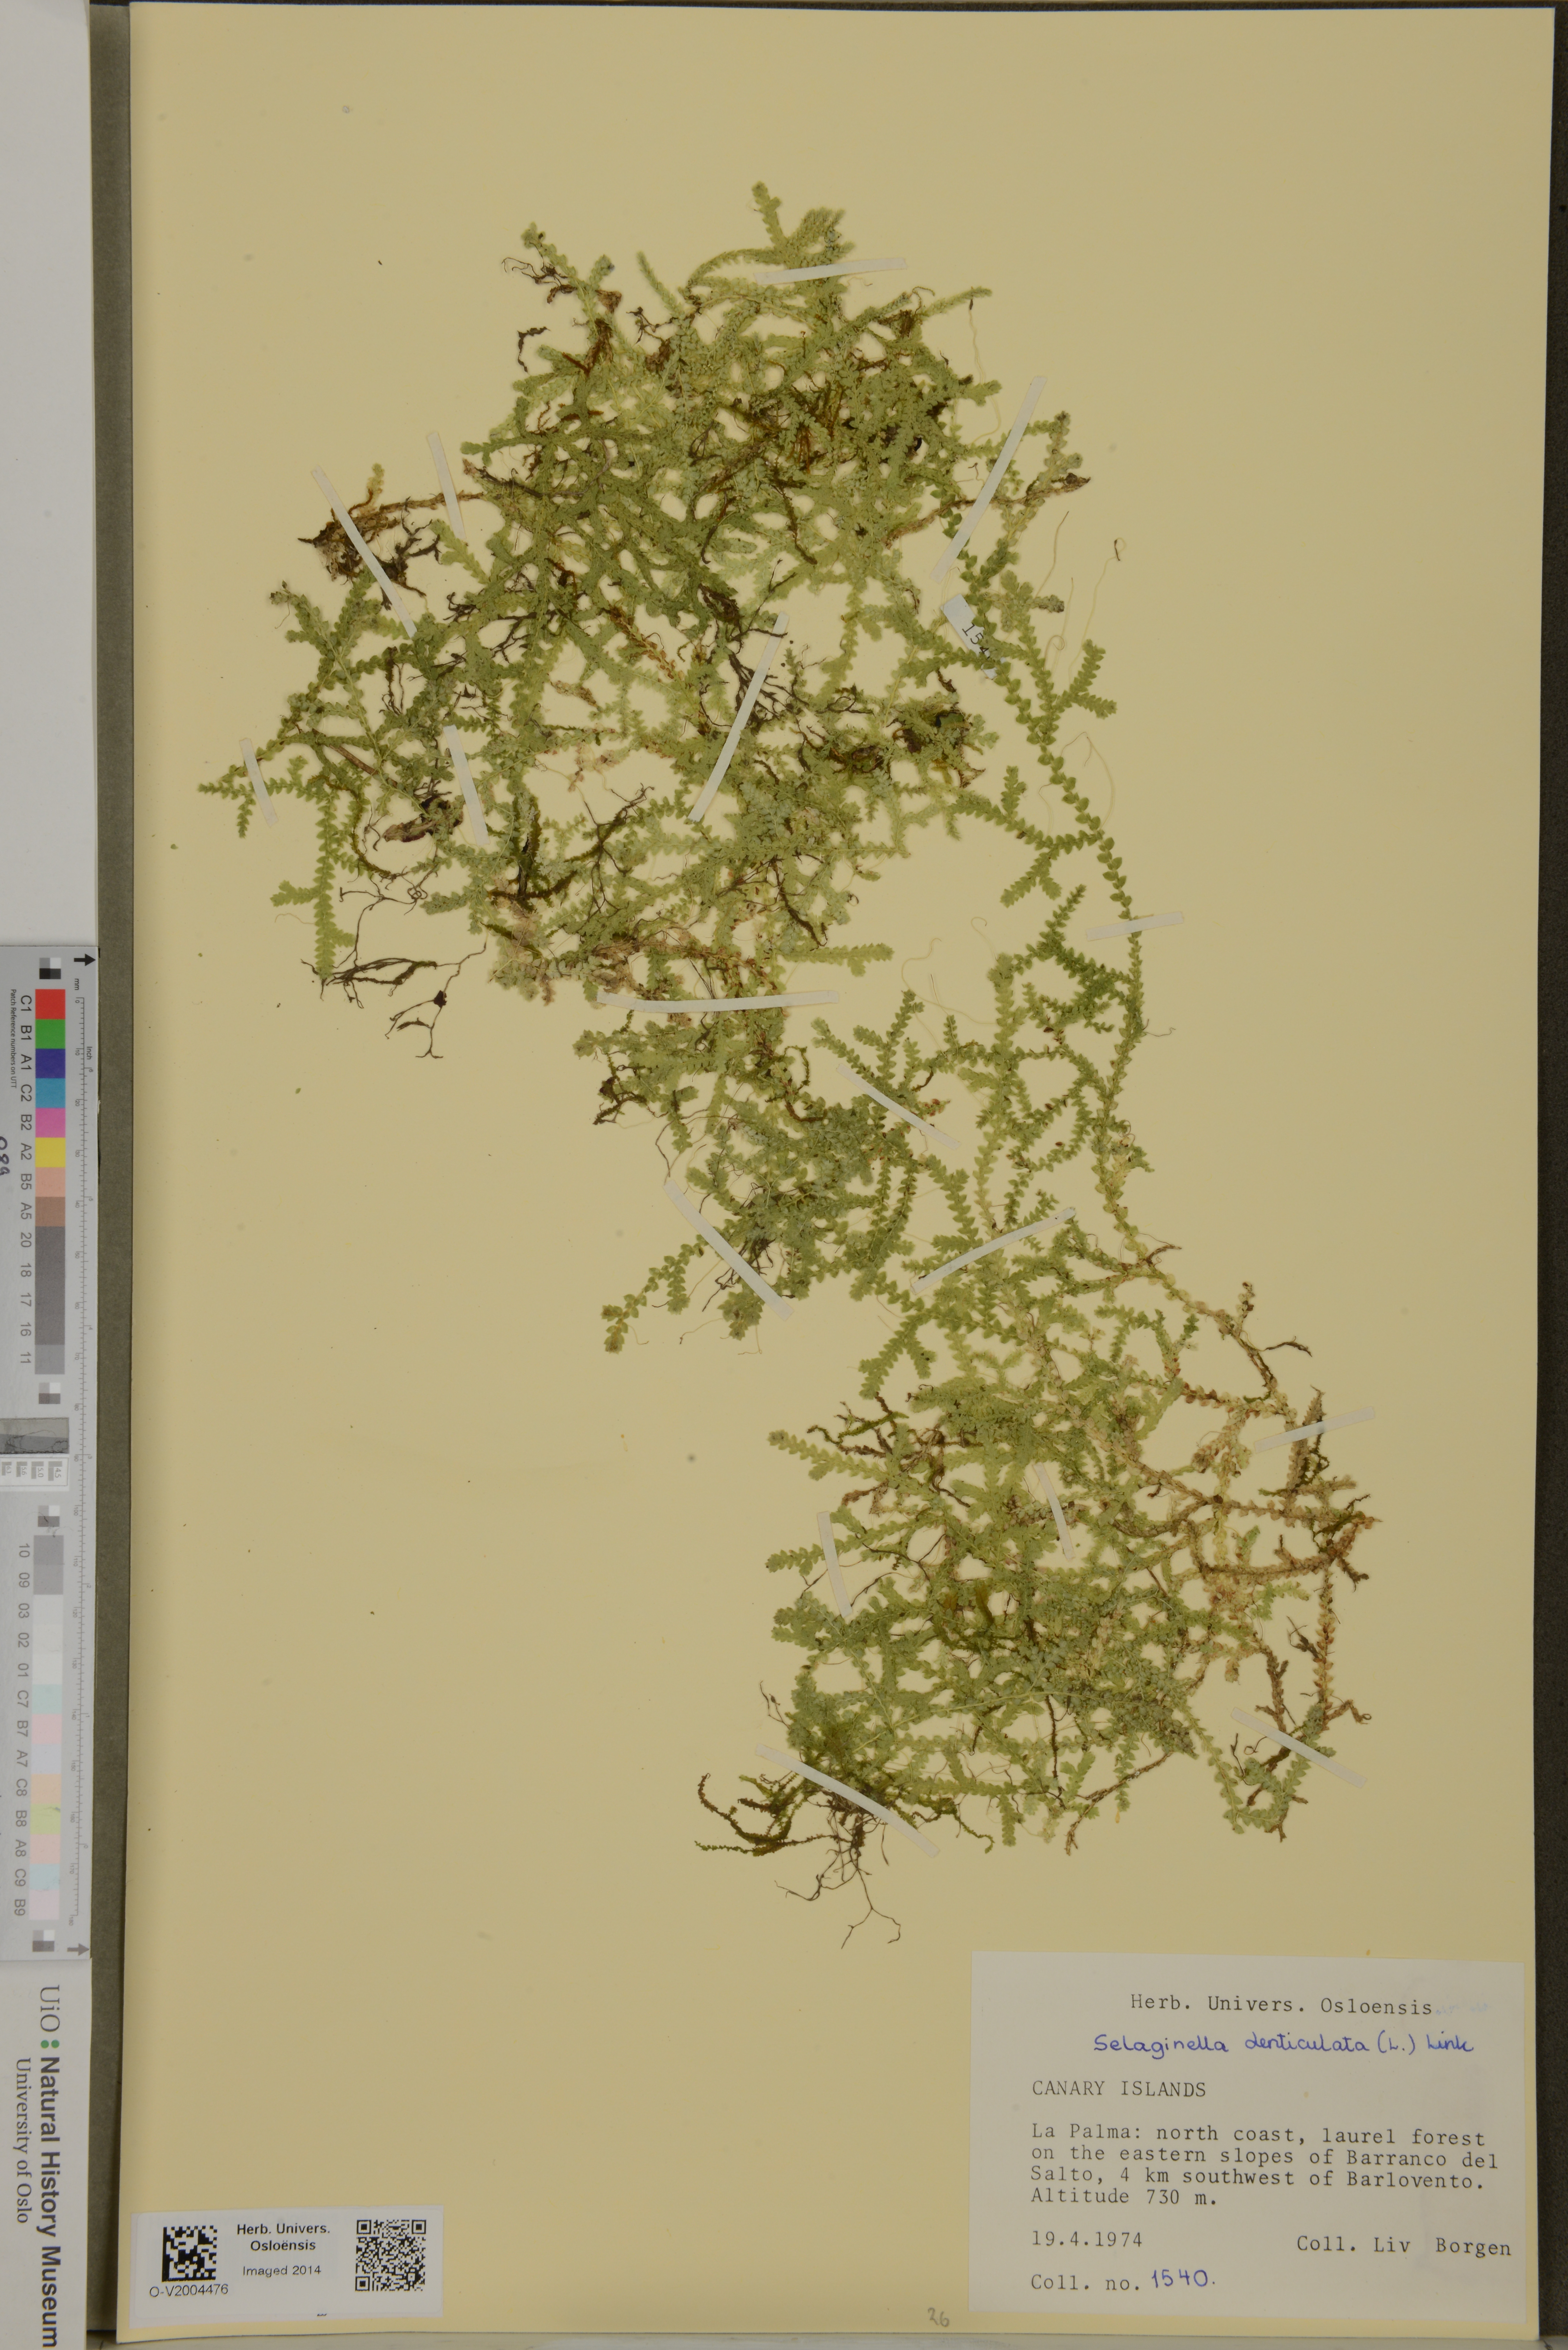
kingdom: Plantae
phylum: Tracheophyta
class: Lycopodiopsida
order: Selaginellales
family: Selaginellaceae
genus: Selaginella
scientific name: Selaginella denticulata
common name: Toothed-leaved clubmoss
